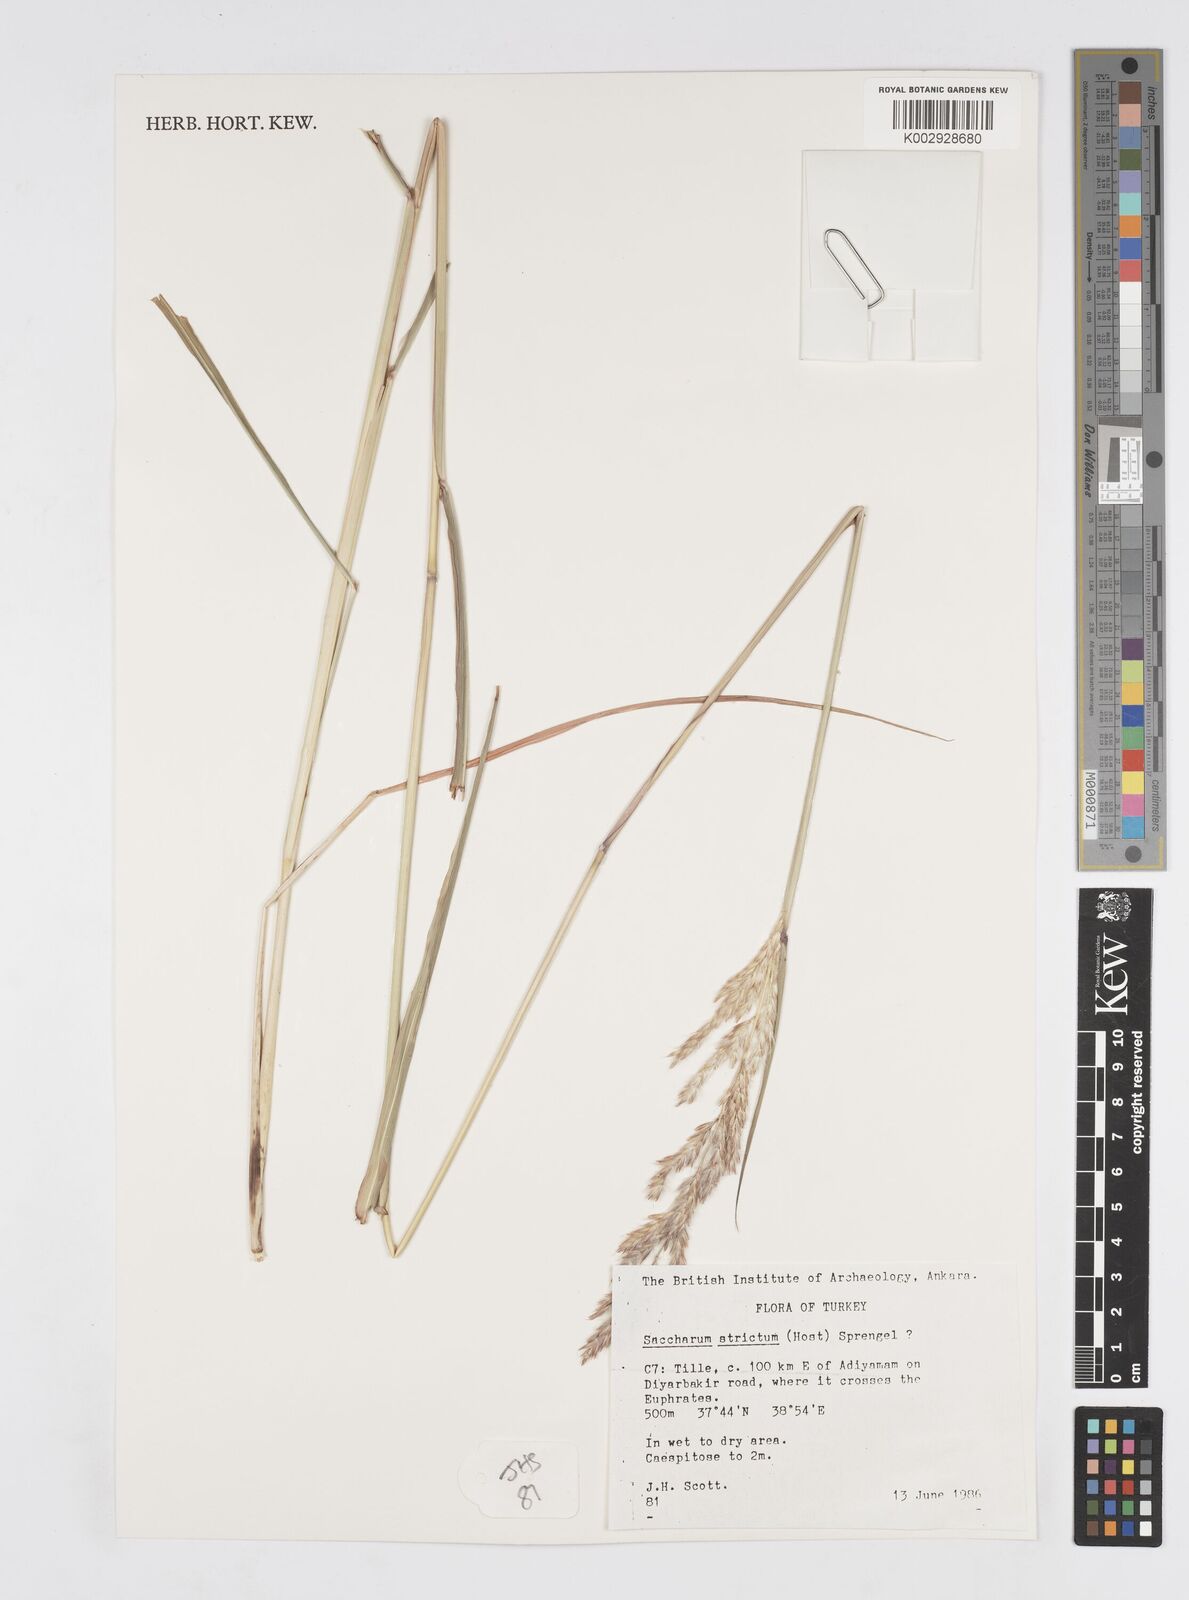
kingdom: Plantae
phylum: Tracheophyta
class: Liliopsida
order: Poales
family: Poaceae
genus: Tripidium
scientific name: Tripidium strictum
